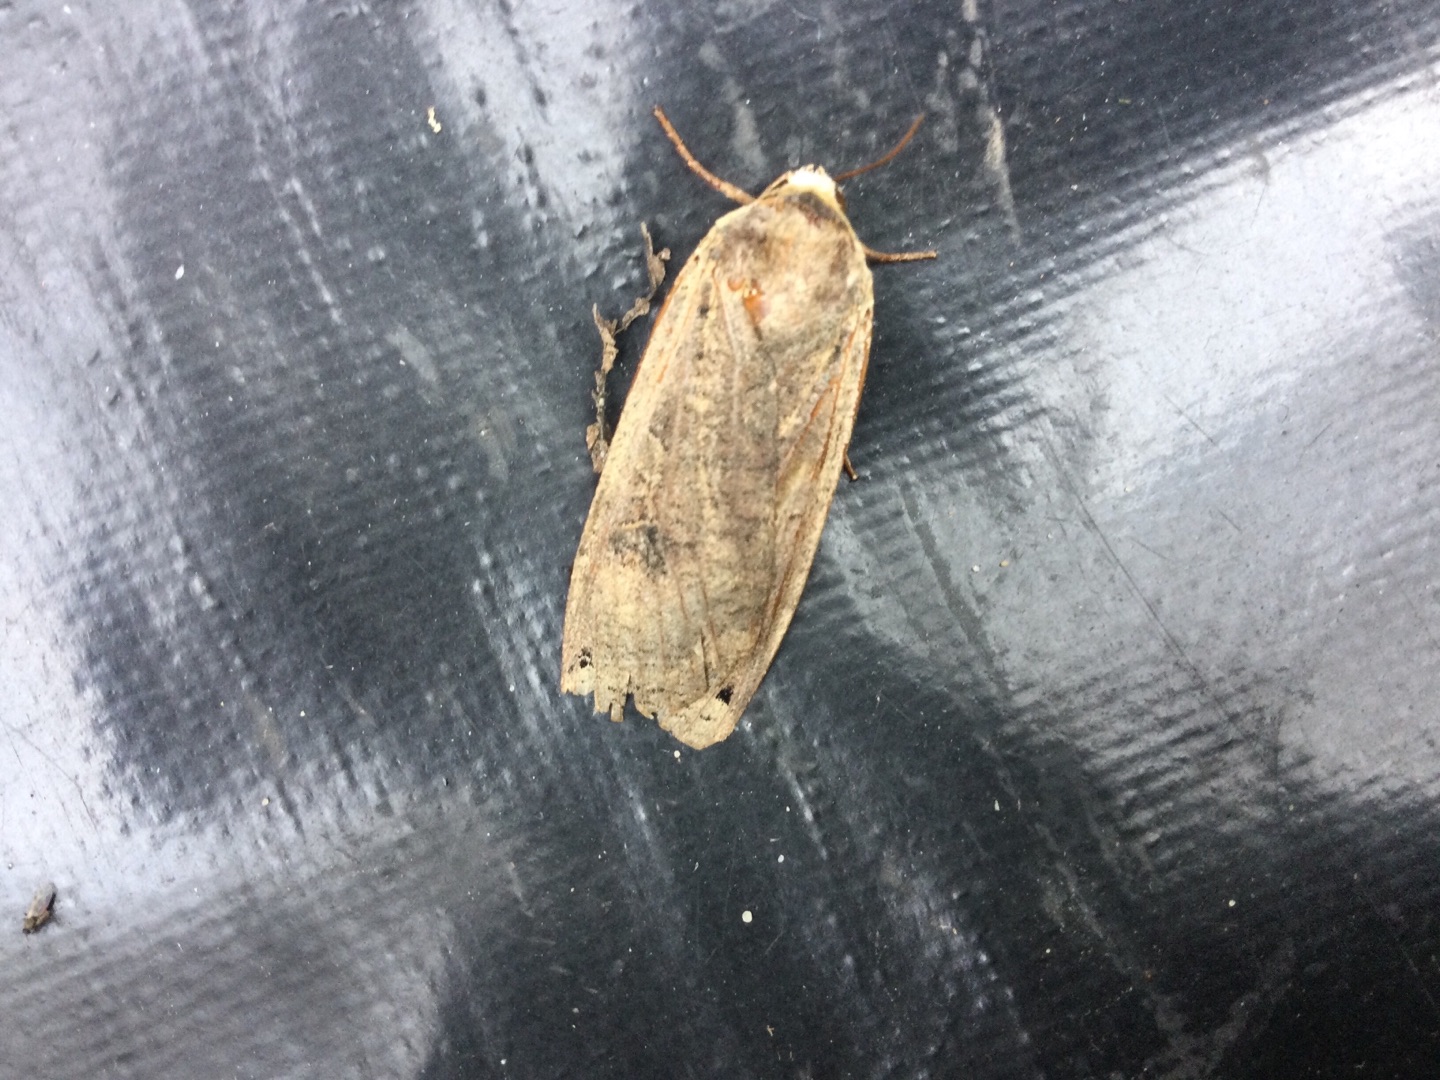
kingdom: Animalia
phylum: Arthropoda
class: Insecta
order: Lepidoptera
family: Noctuidae
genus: Noctua
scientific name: Noctua pronuba
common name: Stor smutugle
